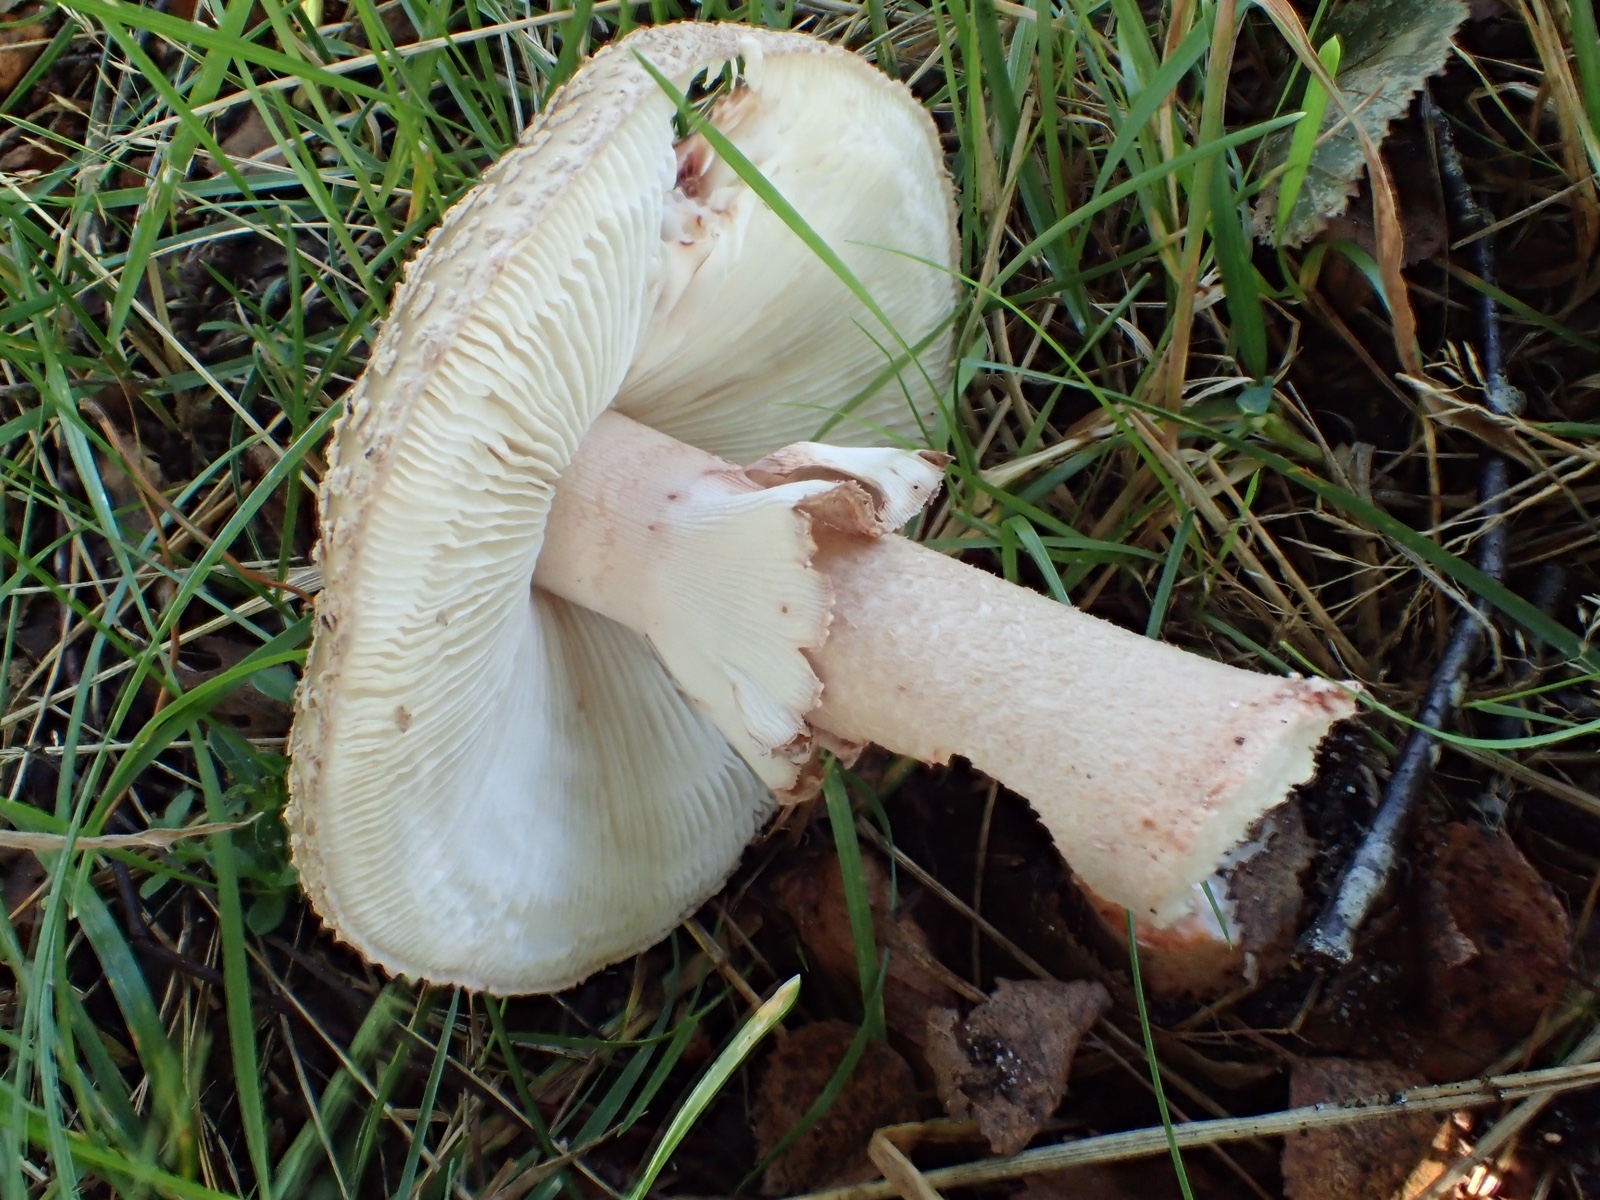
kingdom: Fungi
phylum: Basidiomycota
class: Agaricomycetes
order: Agaricales
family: Amanitaceae
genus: Amanita
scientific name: Amanita rubescens
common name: rødmende fluesvamp
